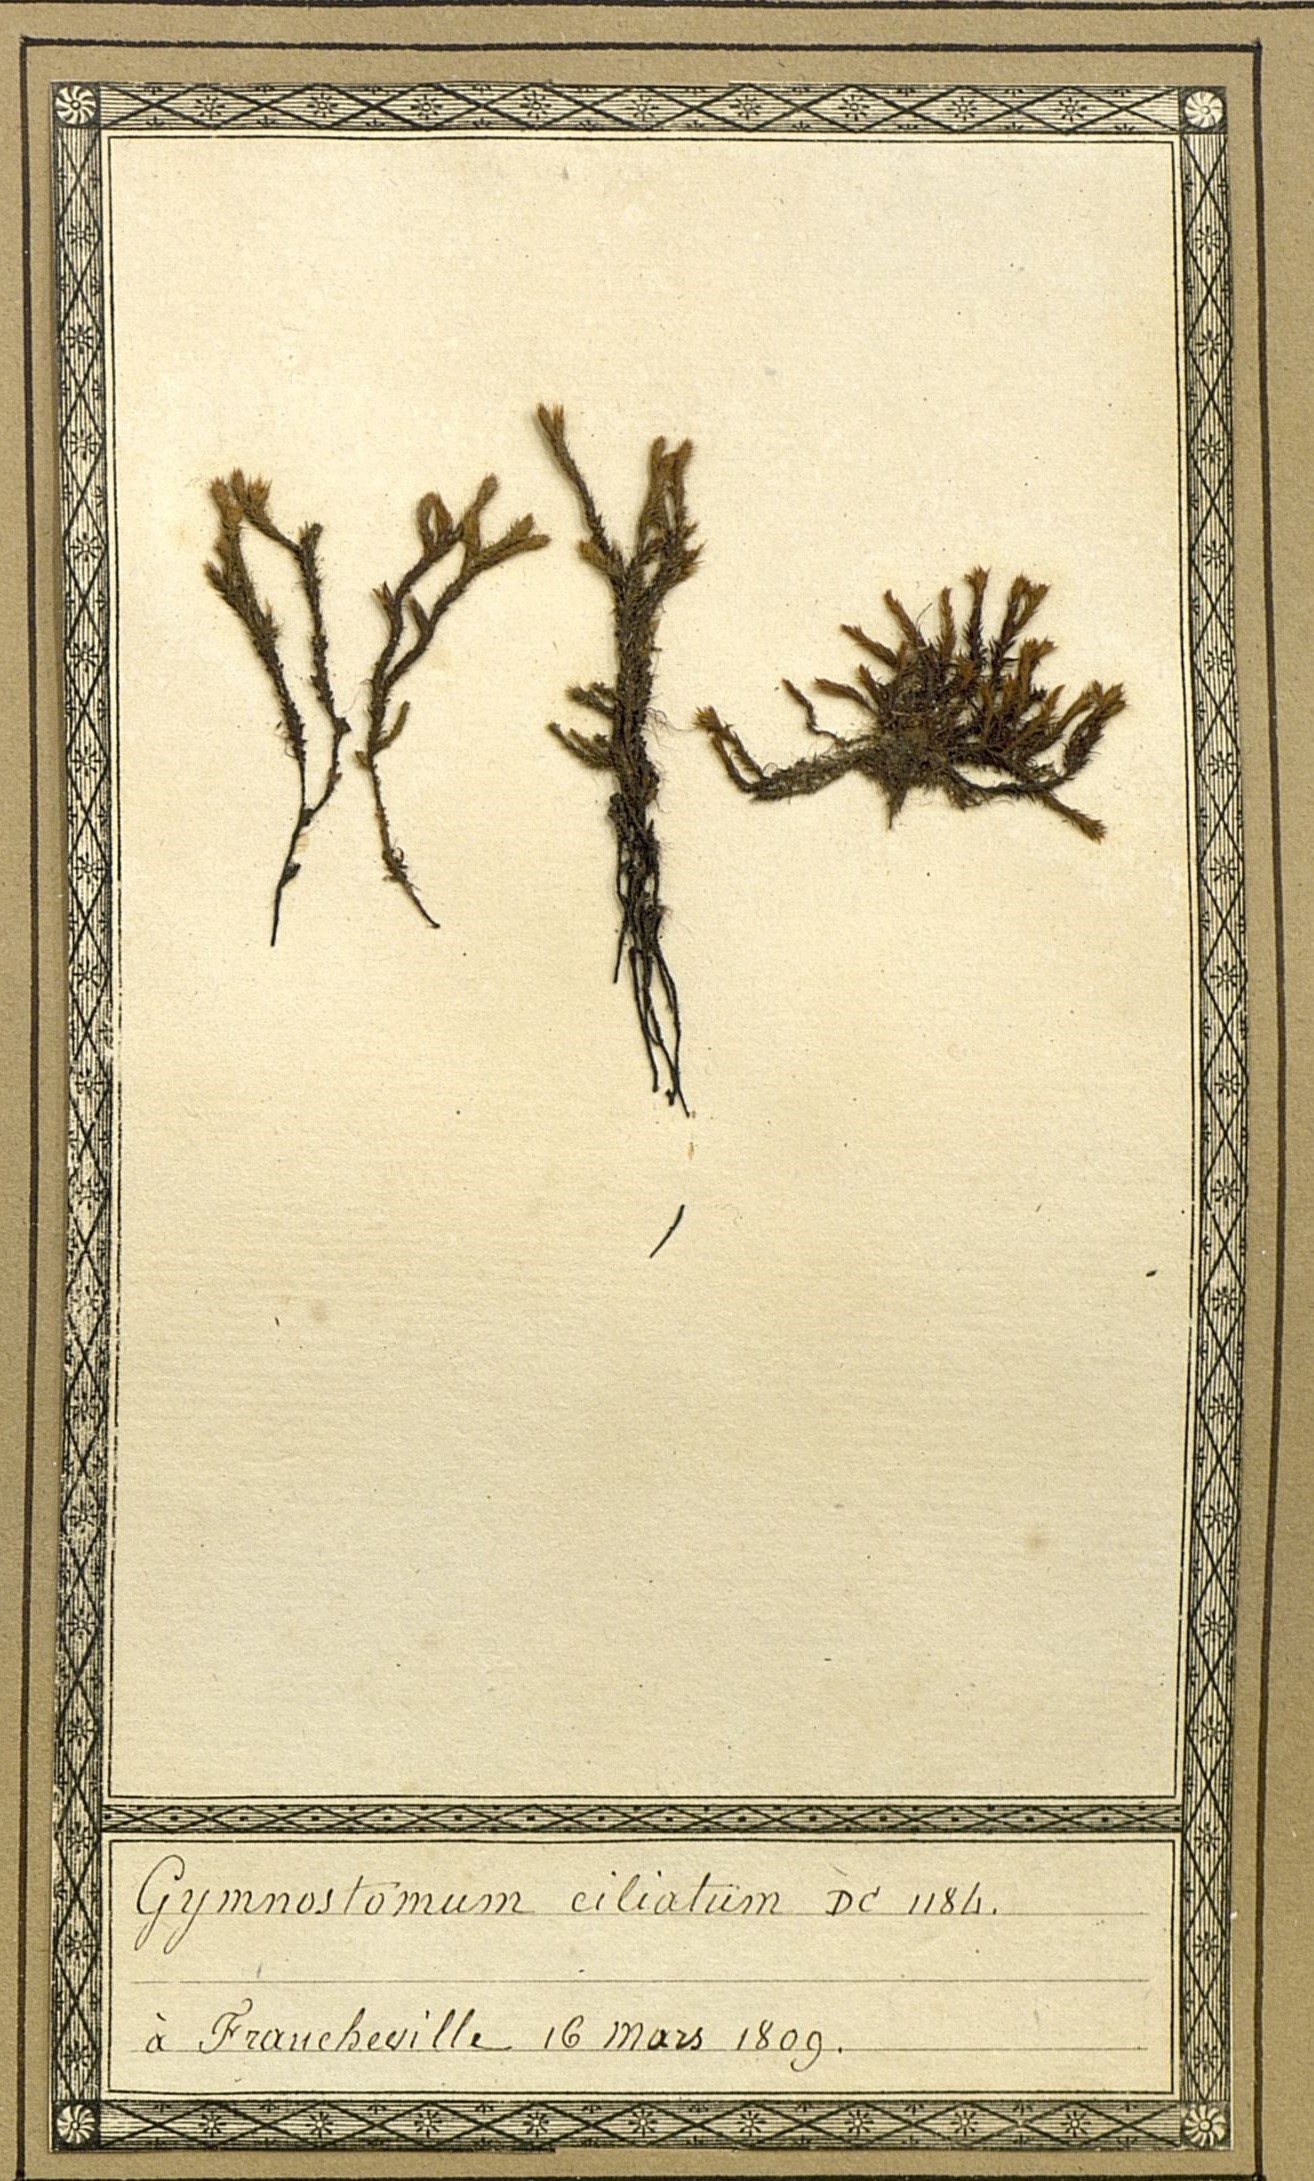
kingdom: Plantae
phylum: Bryophyta
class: Bryopsida
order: Hedwigiales
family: Hedwigiaceae
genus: Hedwigia
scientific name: Hedwigia ciliata
